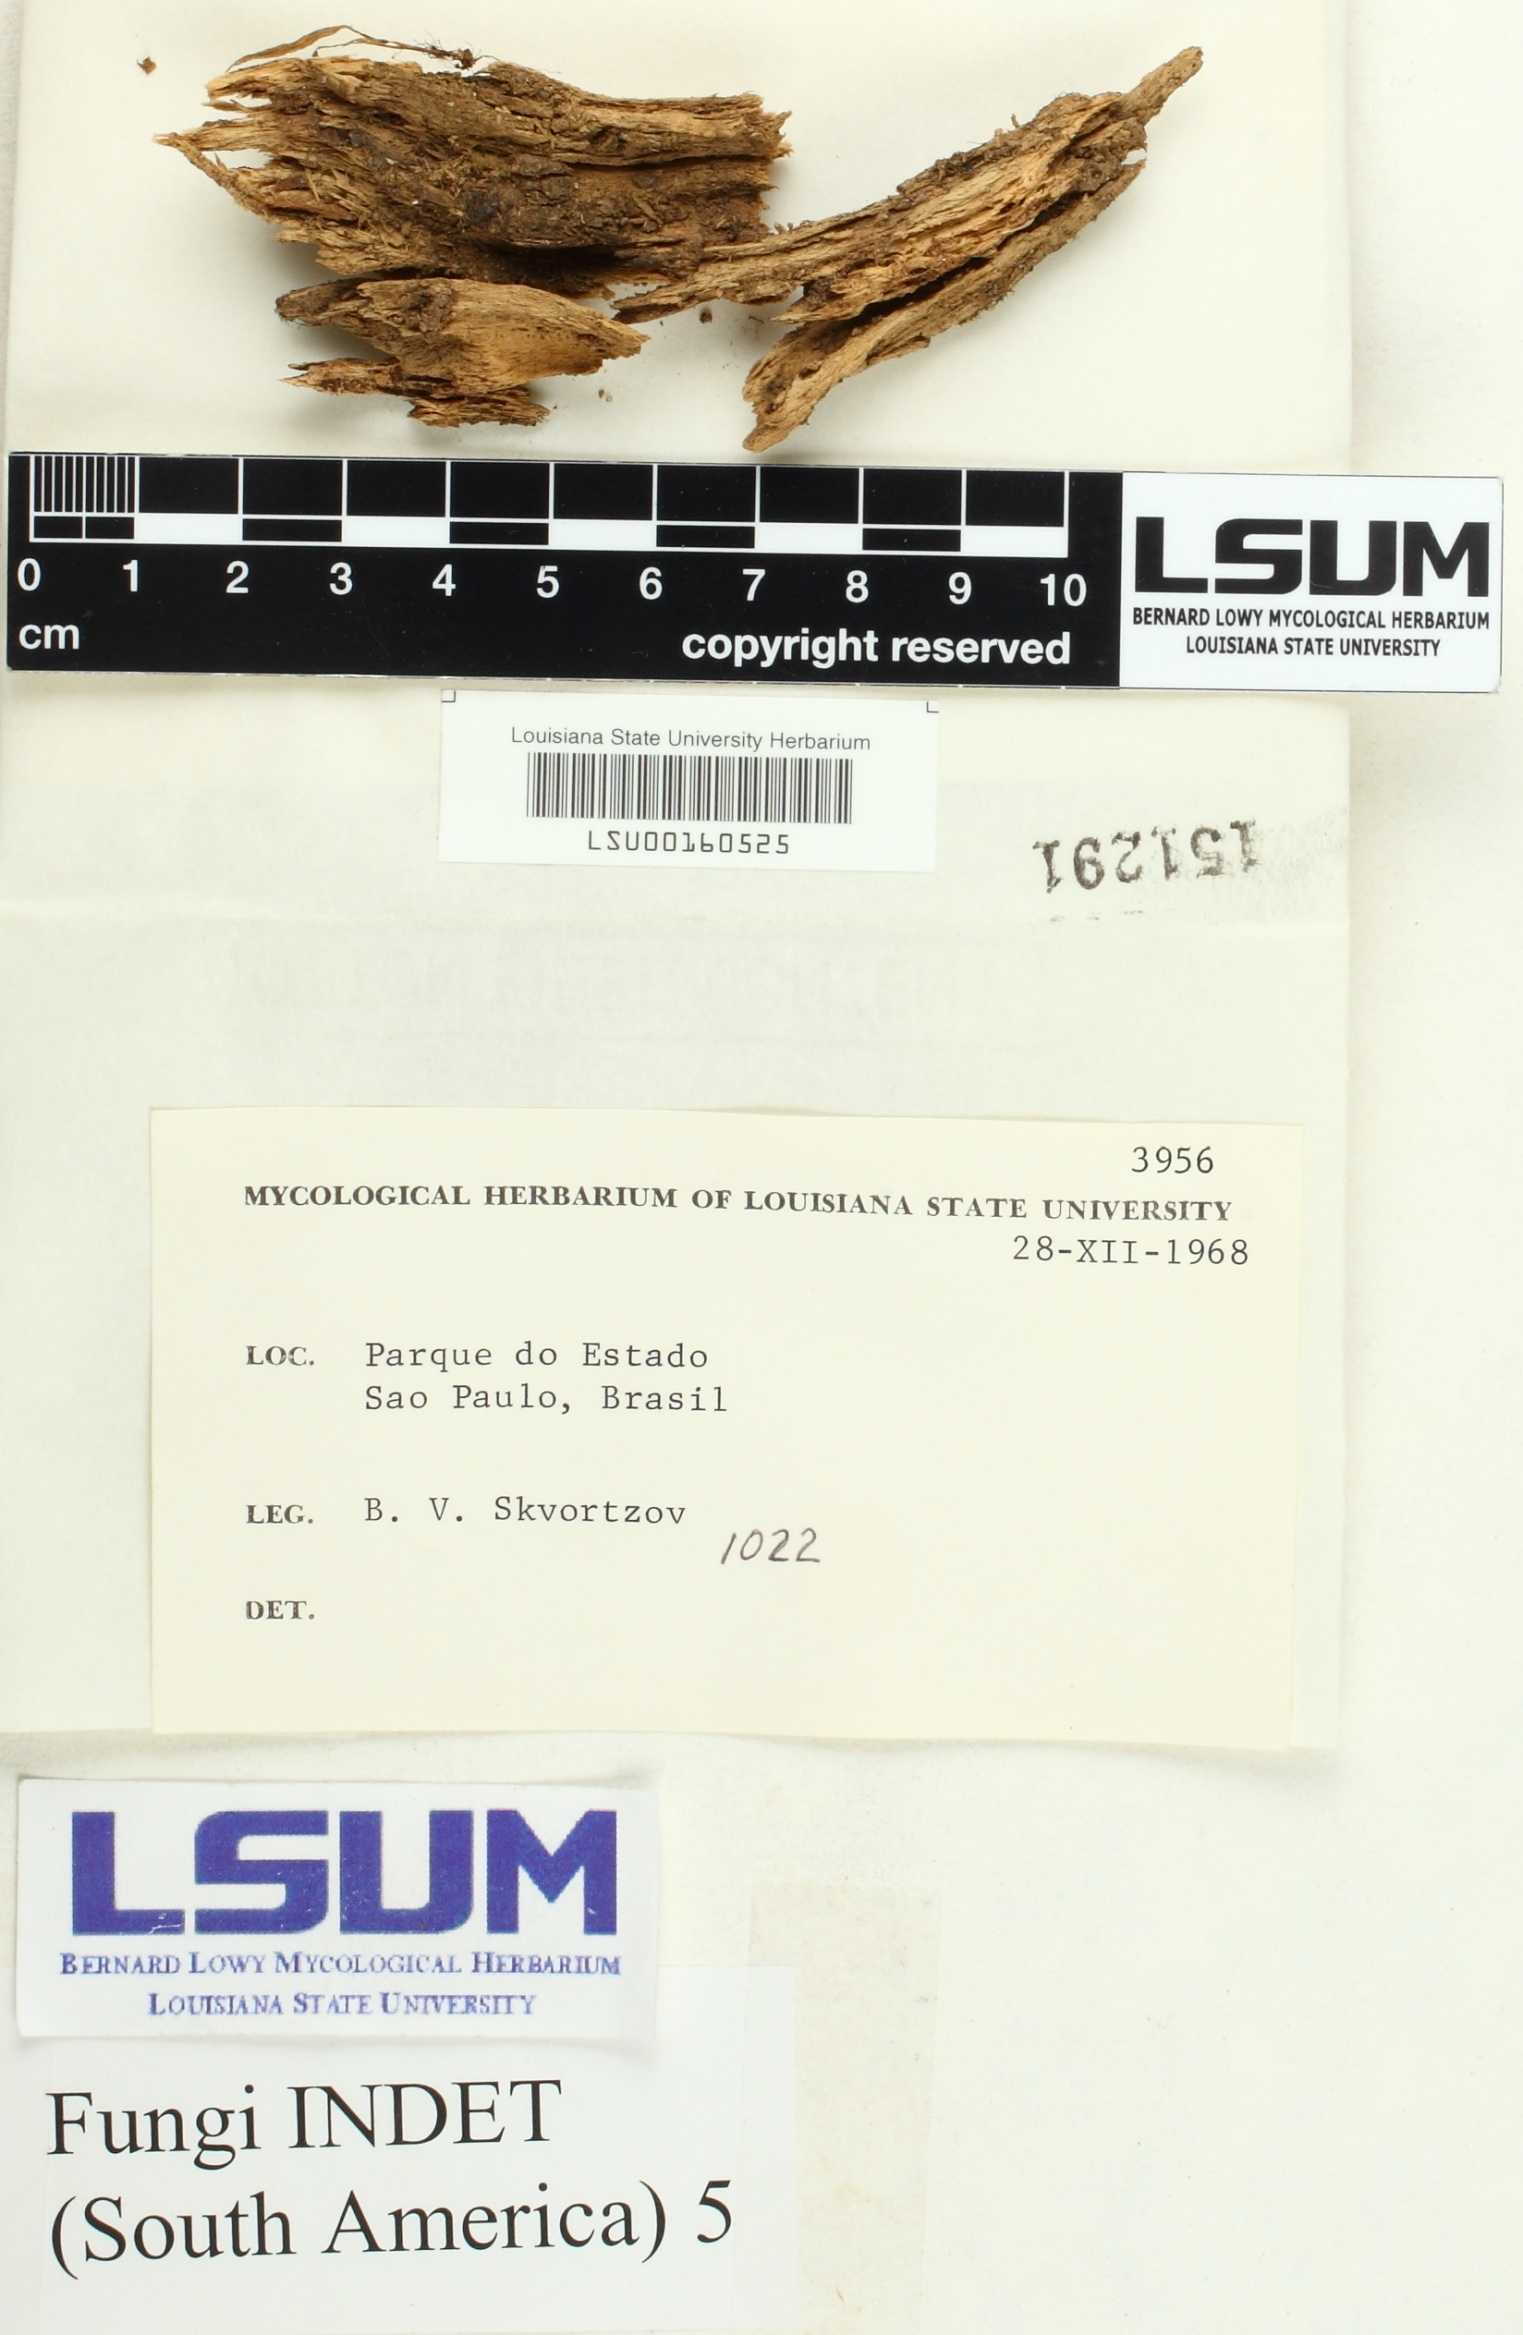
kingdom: Fungi
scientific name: Fungi
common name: Fungi
